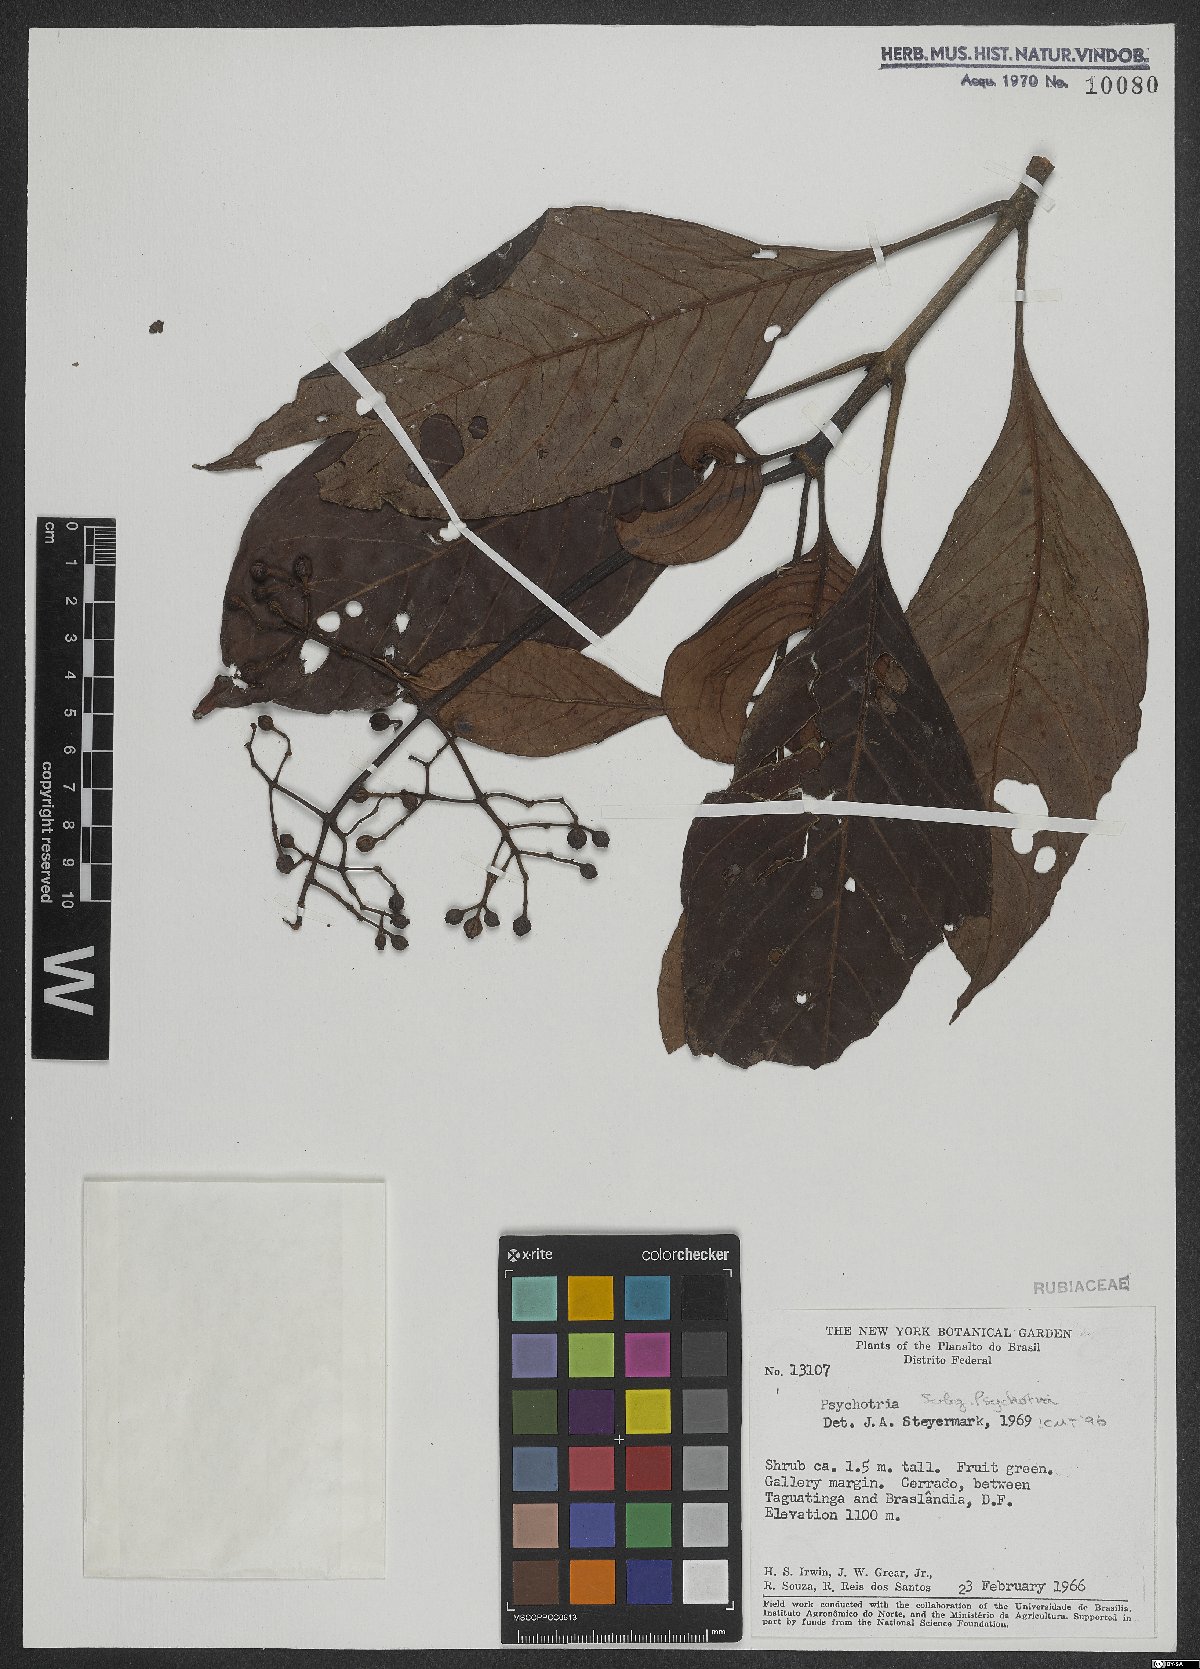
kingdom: Plantae
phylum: Tracheophyta
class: Magnoliopsida
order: Gentianales
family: Rubiaceae
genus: Psychotria
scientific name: Psychotria
